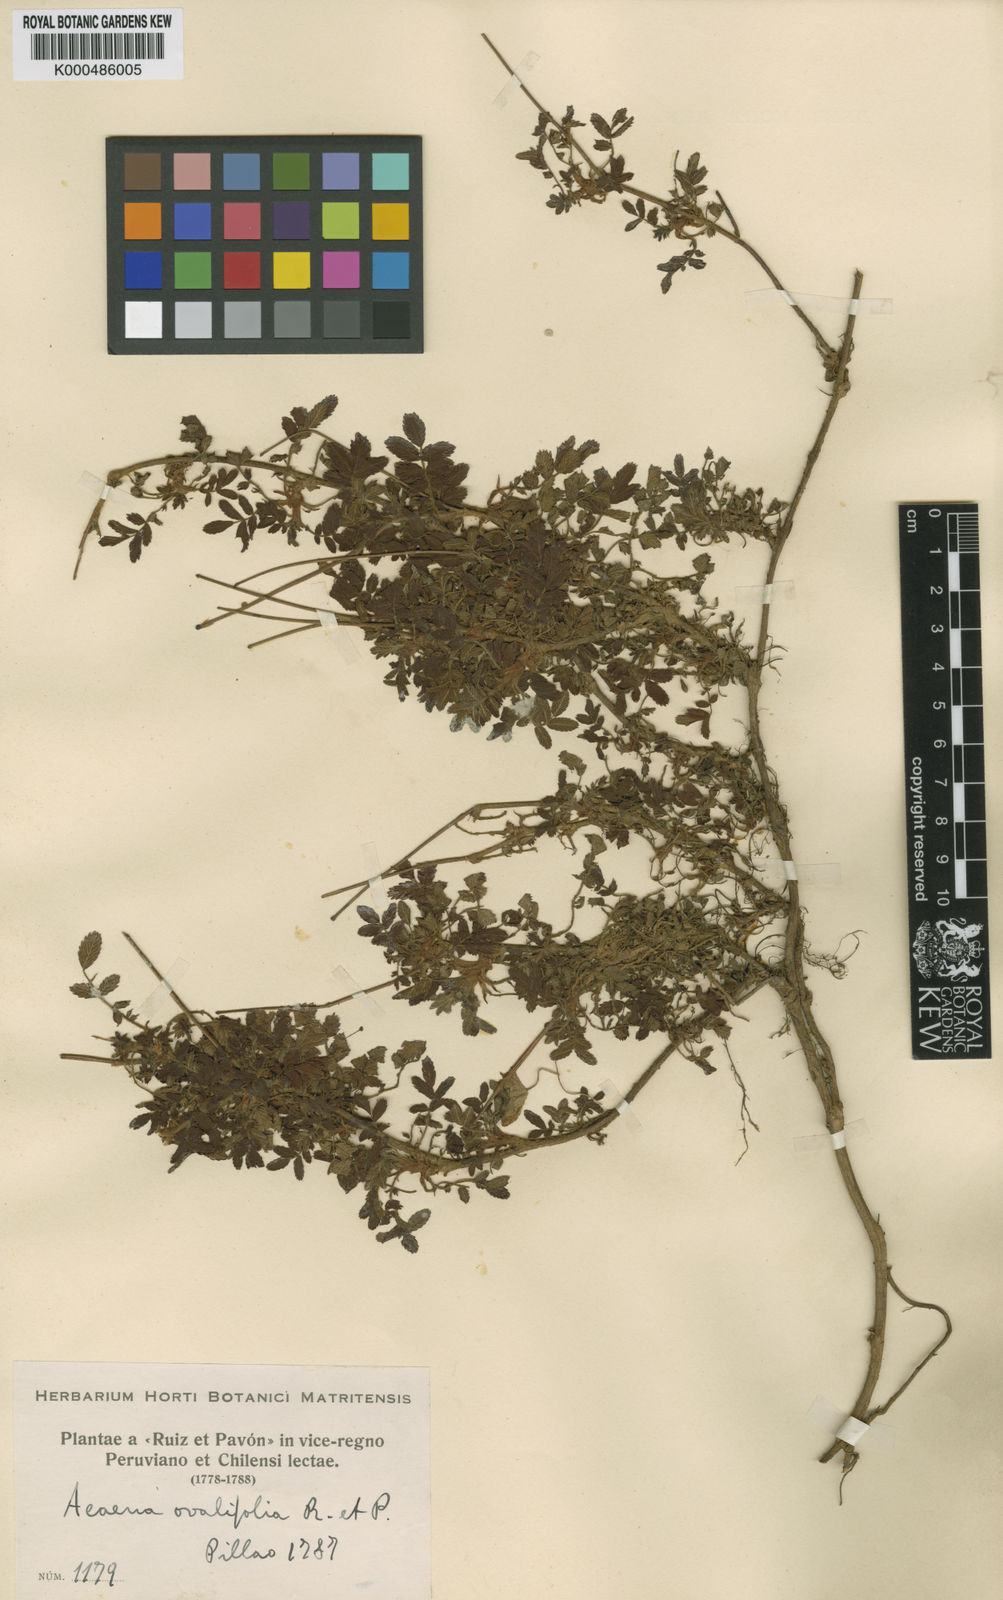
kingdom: Plantae
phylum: Tracheophyta
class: Magnoliopsida
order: Rosales
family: Rosaceae
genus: Acaena
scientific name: Acaena ovalifolia
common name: Two-spined acaena
